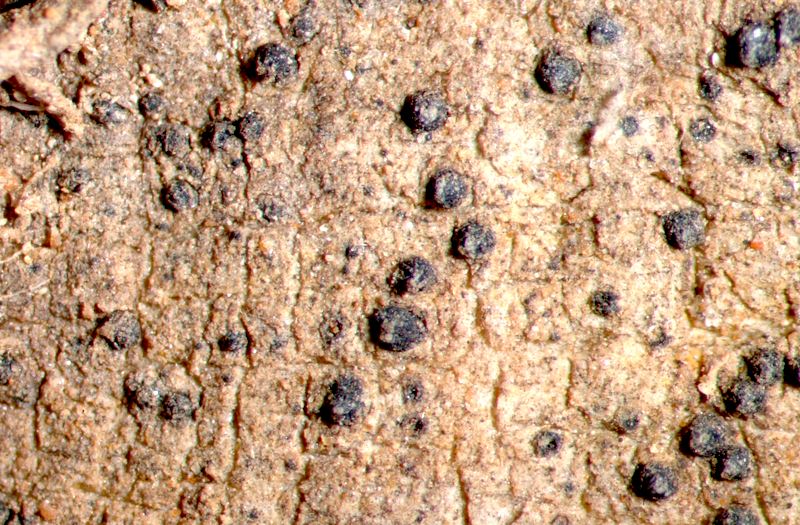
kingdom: Fungi
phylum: Ascomycota
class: Dothideomycetes
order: Trypetheliales
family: Trypetheliaceae
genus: Arthopyrenia
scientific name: Arthopyrenia
